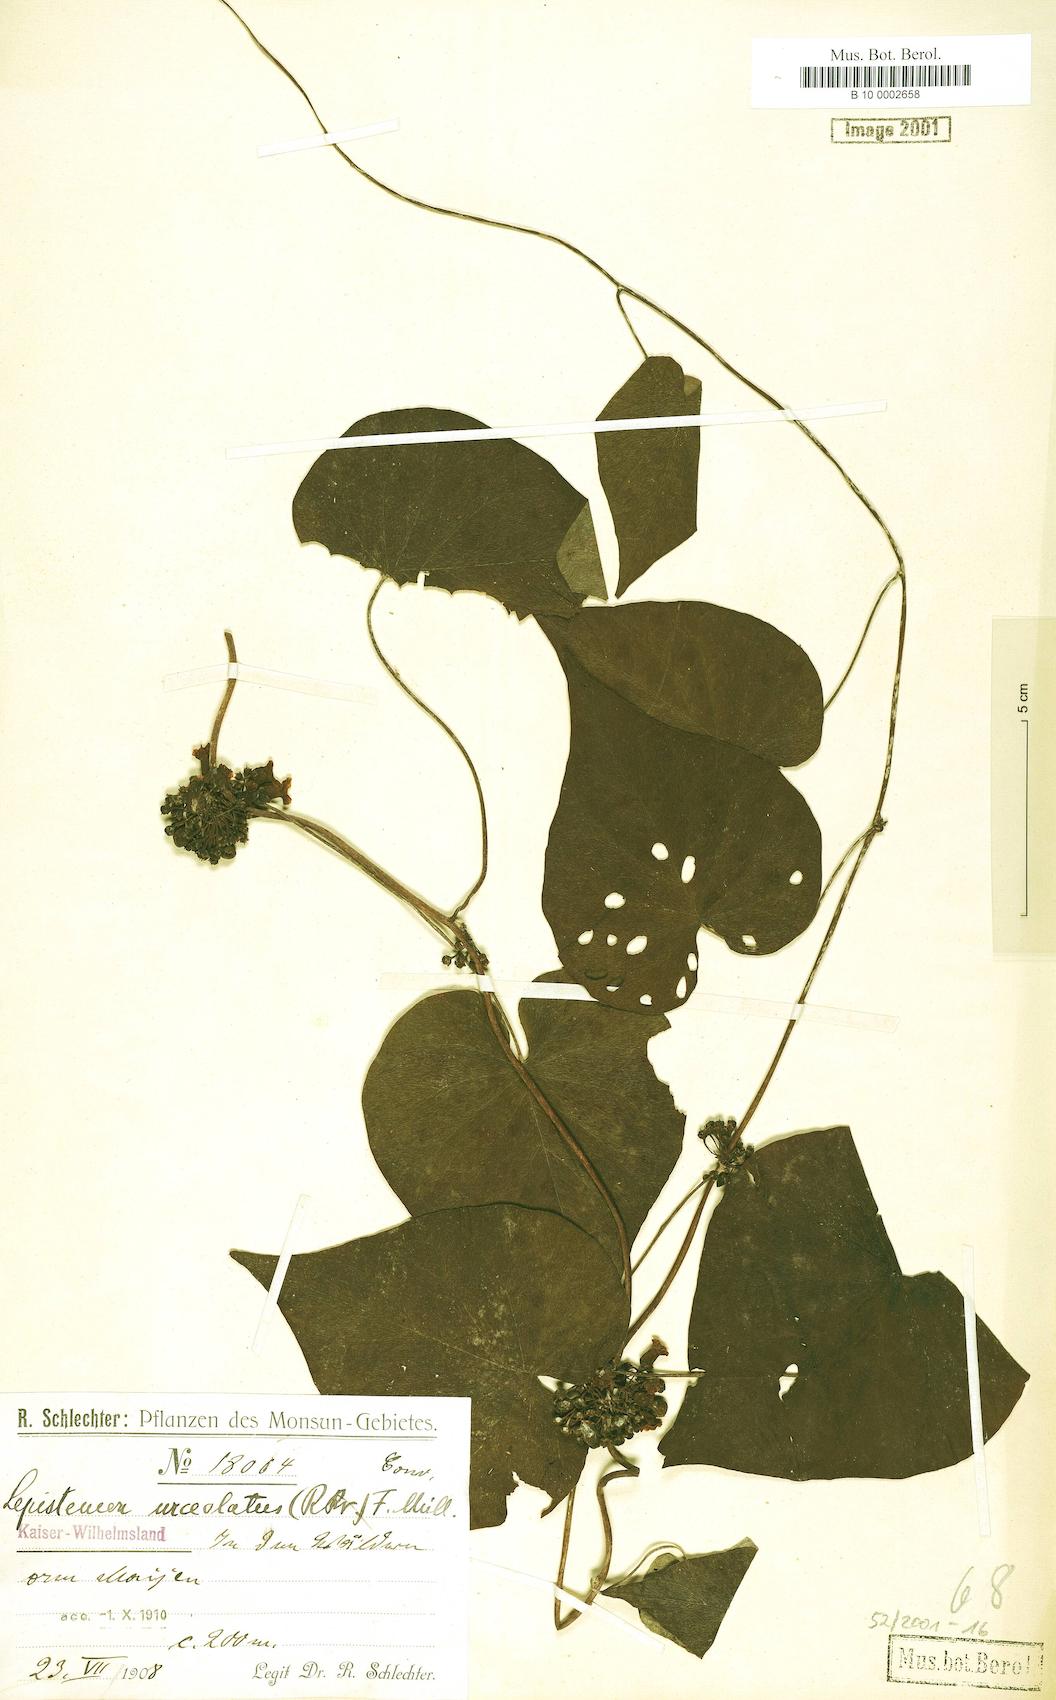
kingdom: Plantae
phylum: Tracheophyta
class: Magnoliopsida
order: Solanales
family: Convolvulaceae
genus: Lepistemon
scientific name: Lepistemon urceolatus
